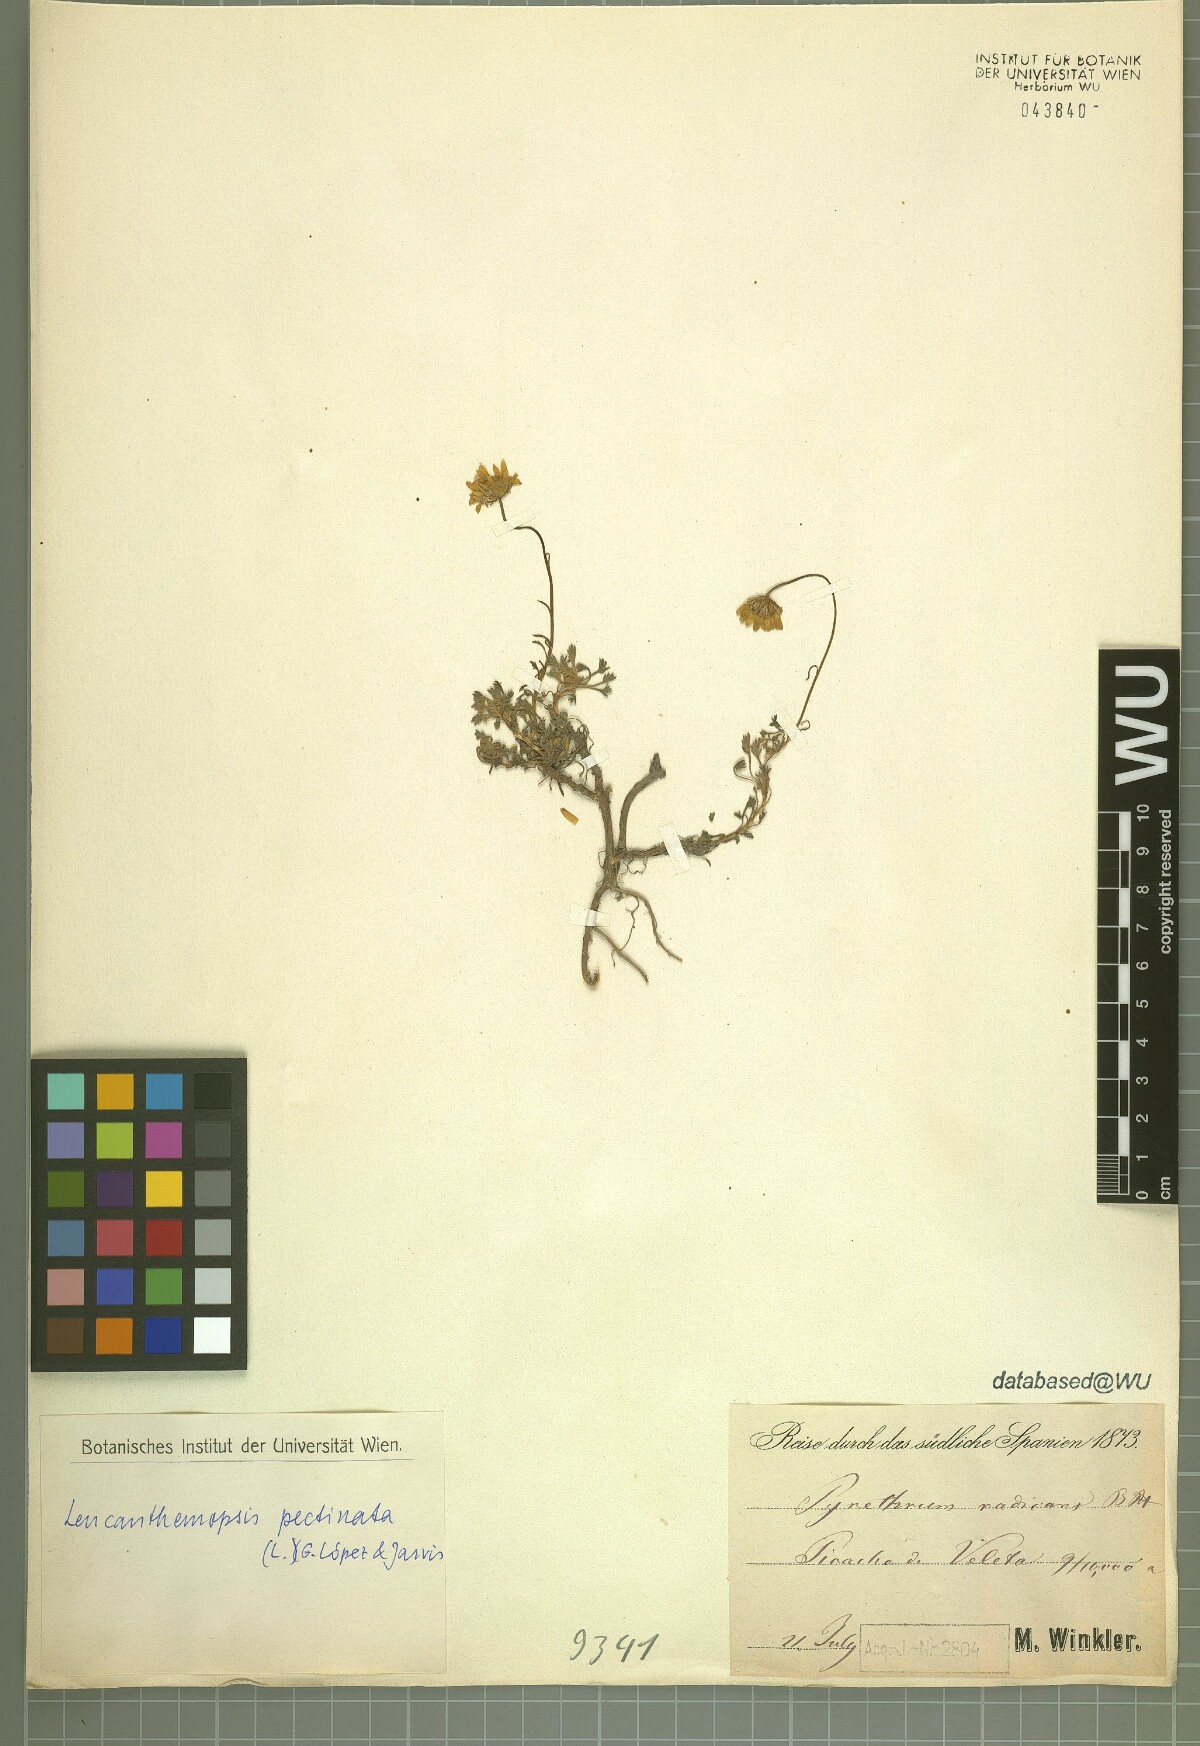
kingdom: Plantae
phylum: Tracheophyta
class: Magnoliopsida
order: Asterales
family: Asteraceae
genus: Leucanthemopsis
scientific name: Leucanthemopsis pectinata
